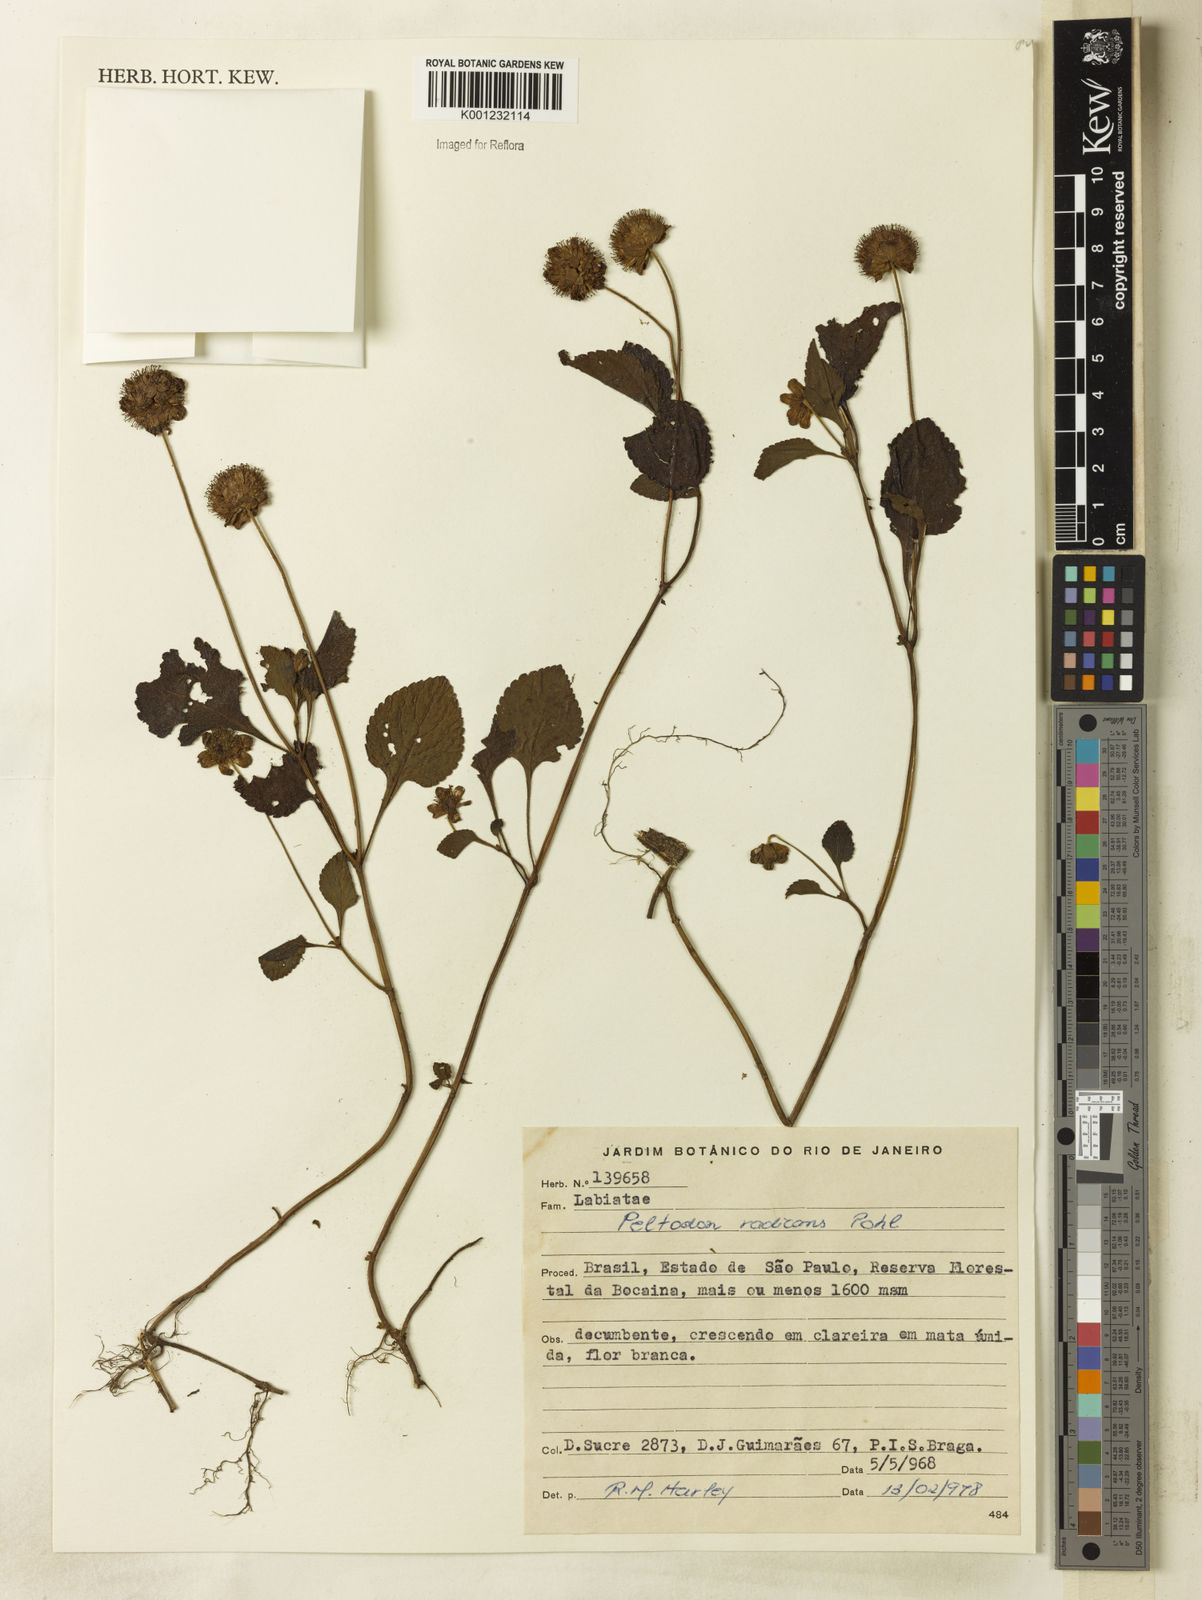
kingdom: Plantae
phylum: Tracheophyta
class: Magnoliopsida
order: Lamiales
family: Lamiaceae
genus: Hyptis
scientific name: Hyptis radicans
